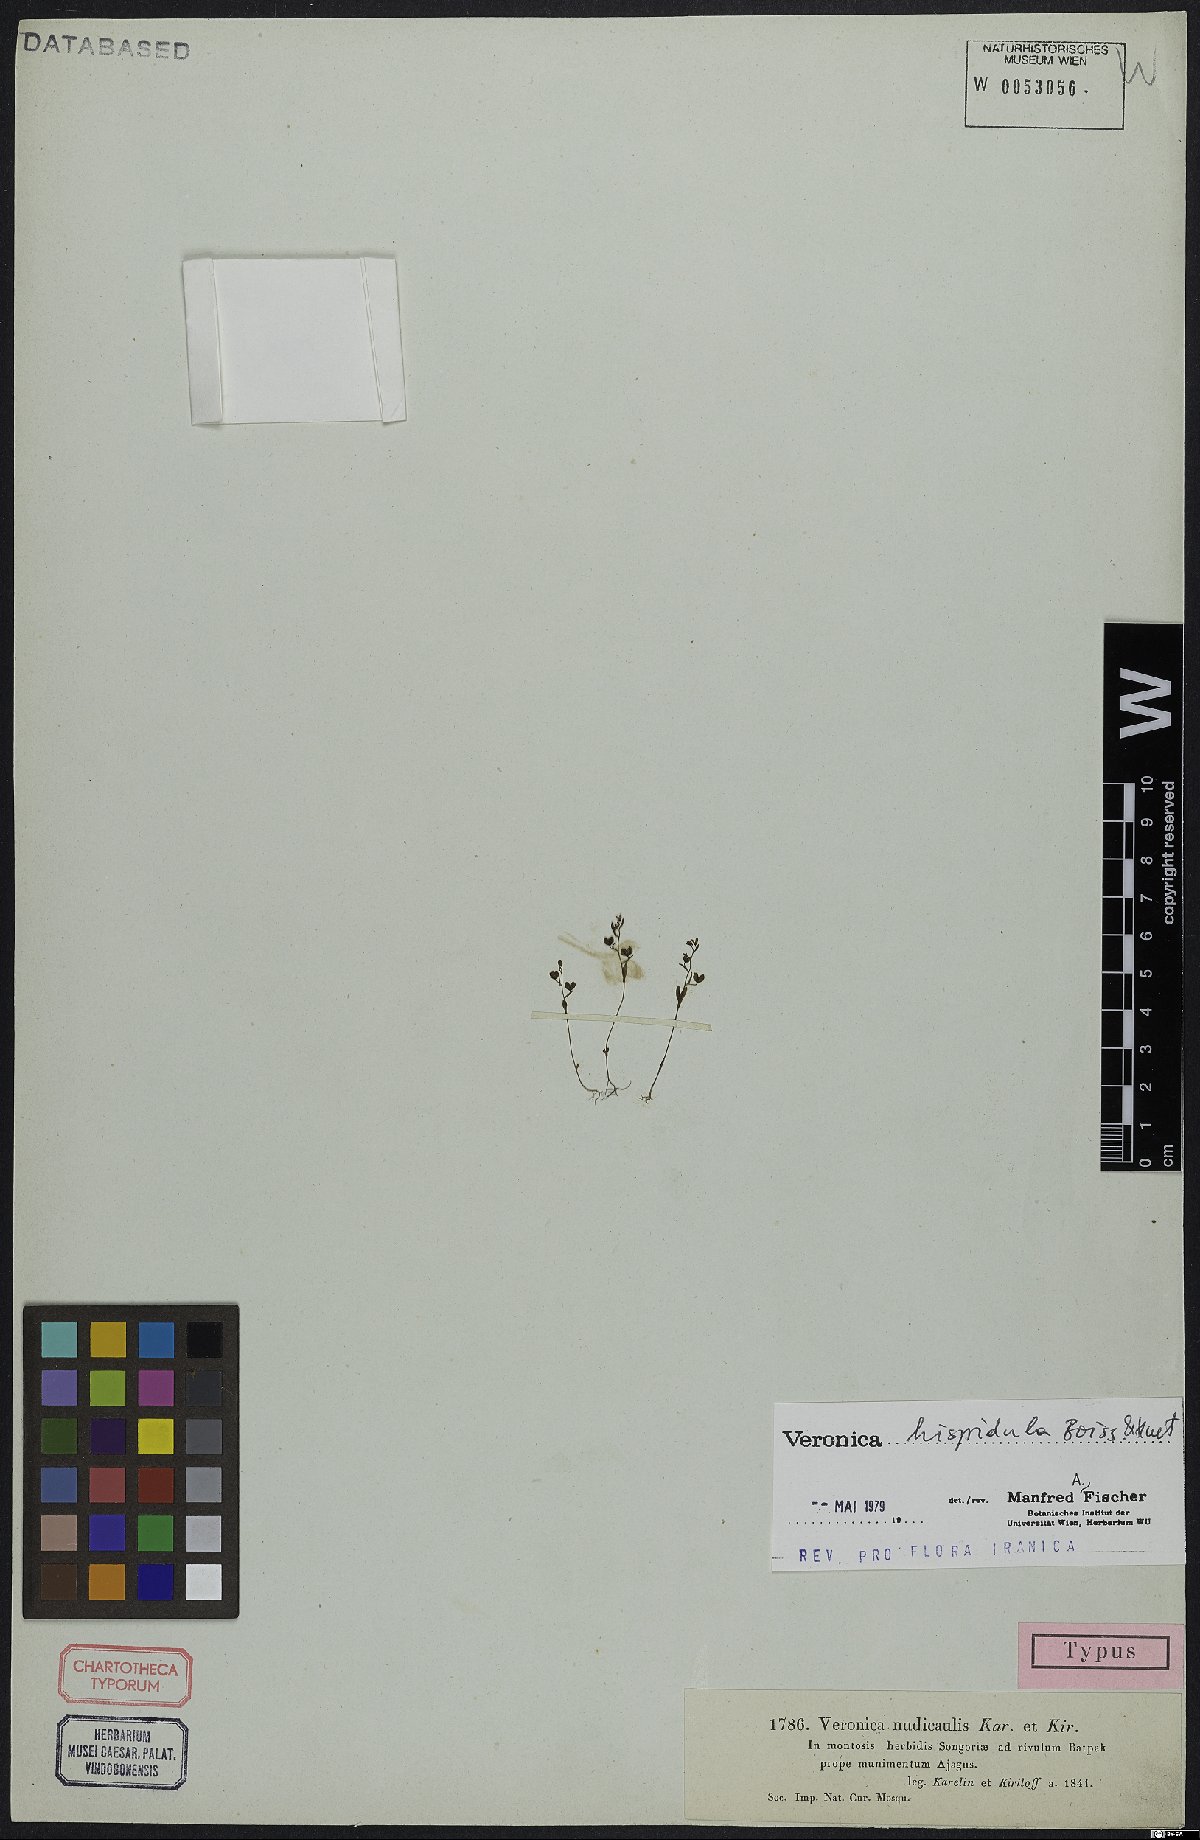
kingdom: Plantae
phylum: Tracheophyta
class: Magnoliopsida
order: Lamiales
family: Plantaginaceae
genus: Veronica
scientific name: Veronica hispidula
